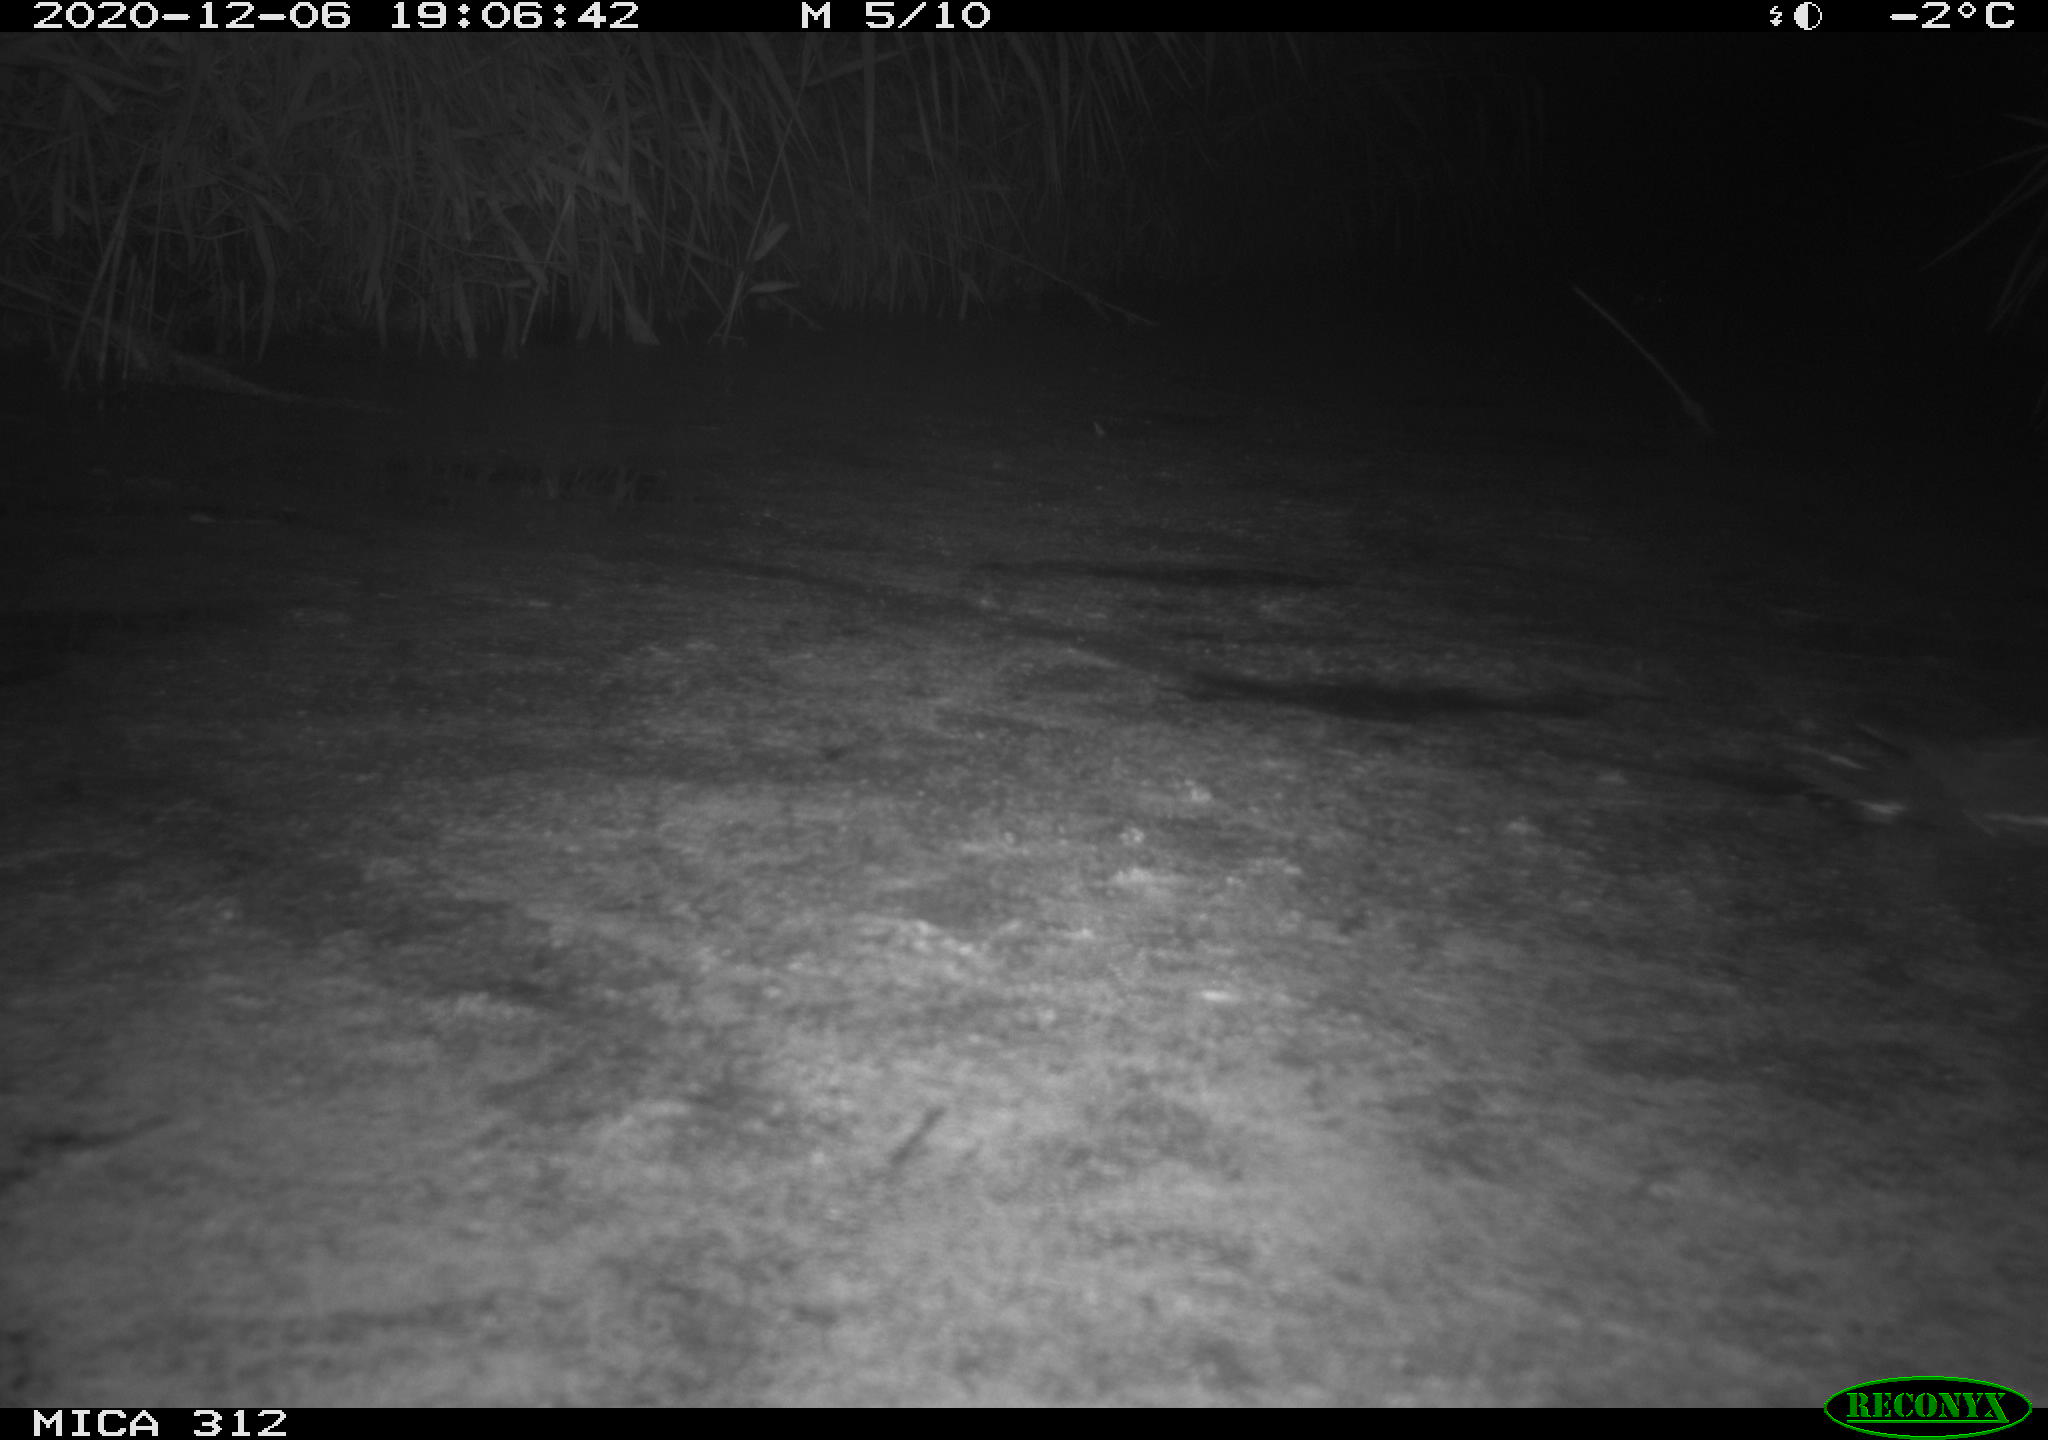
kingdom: Animalia
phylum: Chordata
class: Aves
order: Gruiformes
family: Rallidae
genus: Gallinula
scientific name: Gallinula chloropus
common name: Common moorhen
